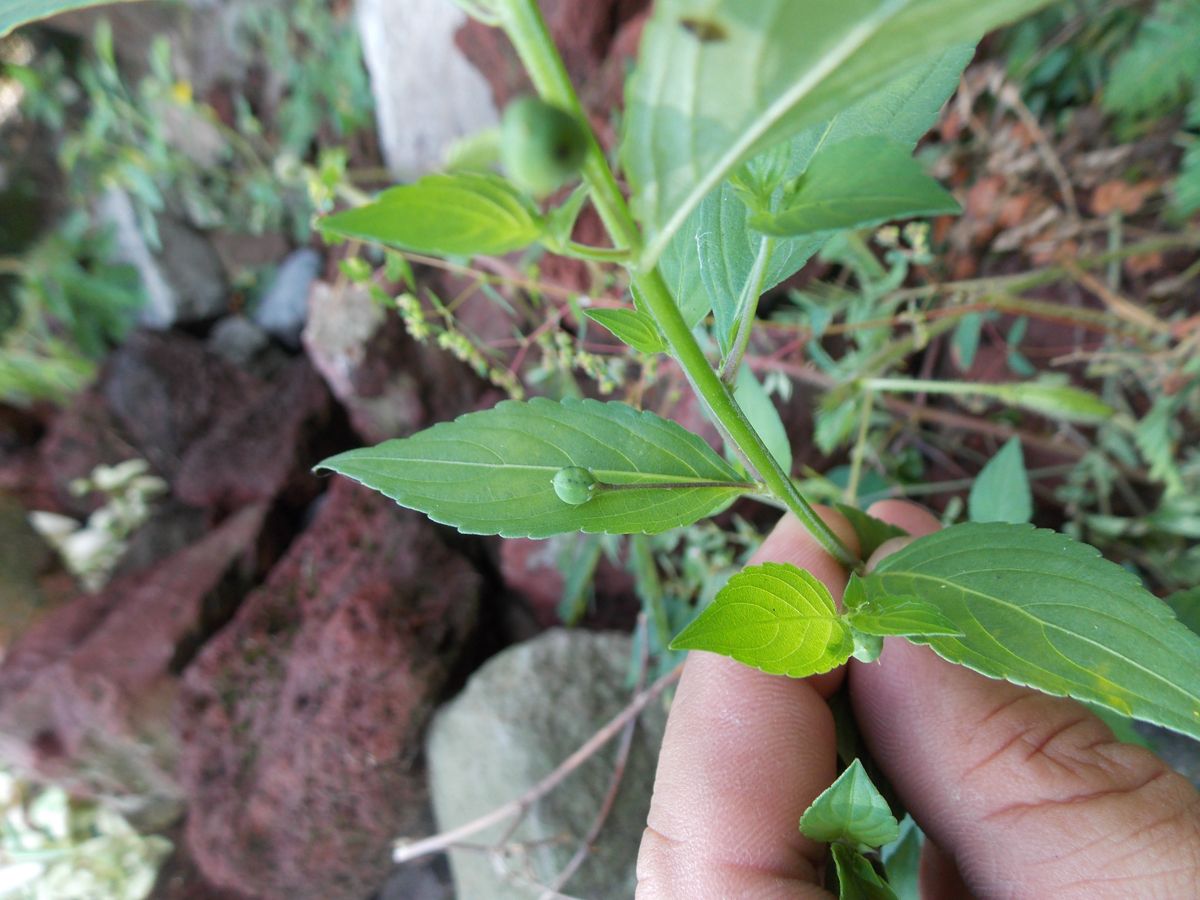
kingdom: Plantae
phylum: Tracheophyta
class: Magnoliopsida
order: Malpighiales
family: Violaceae
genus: Hybanthus
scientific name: Hybanthus thiemei
